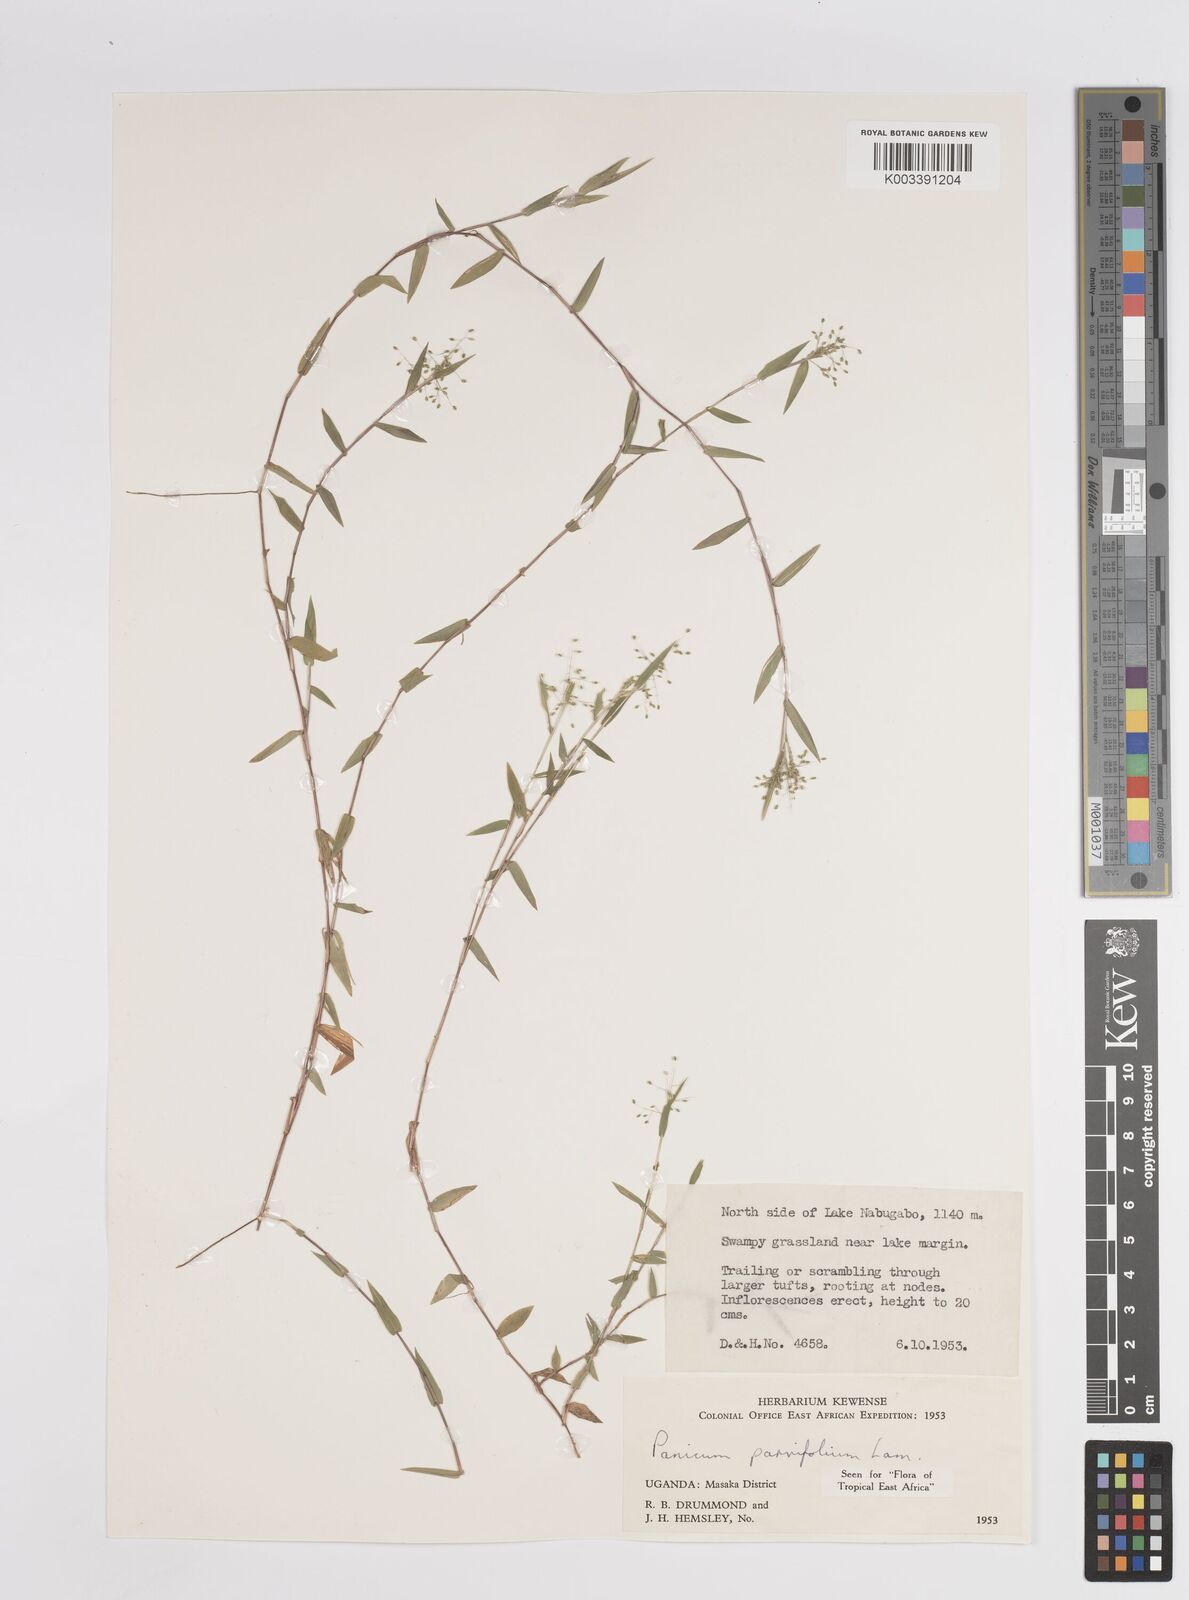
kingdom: Plantae
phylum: Tracheophyta
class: Liliopsida
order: Poales
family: Poaceae
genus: Trichanthecium
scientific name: Trichanthecium parvifolium
